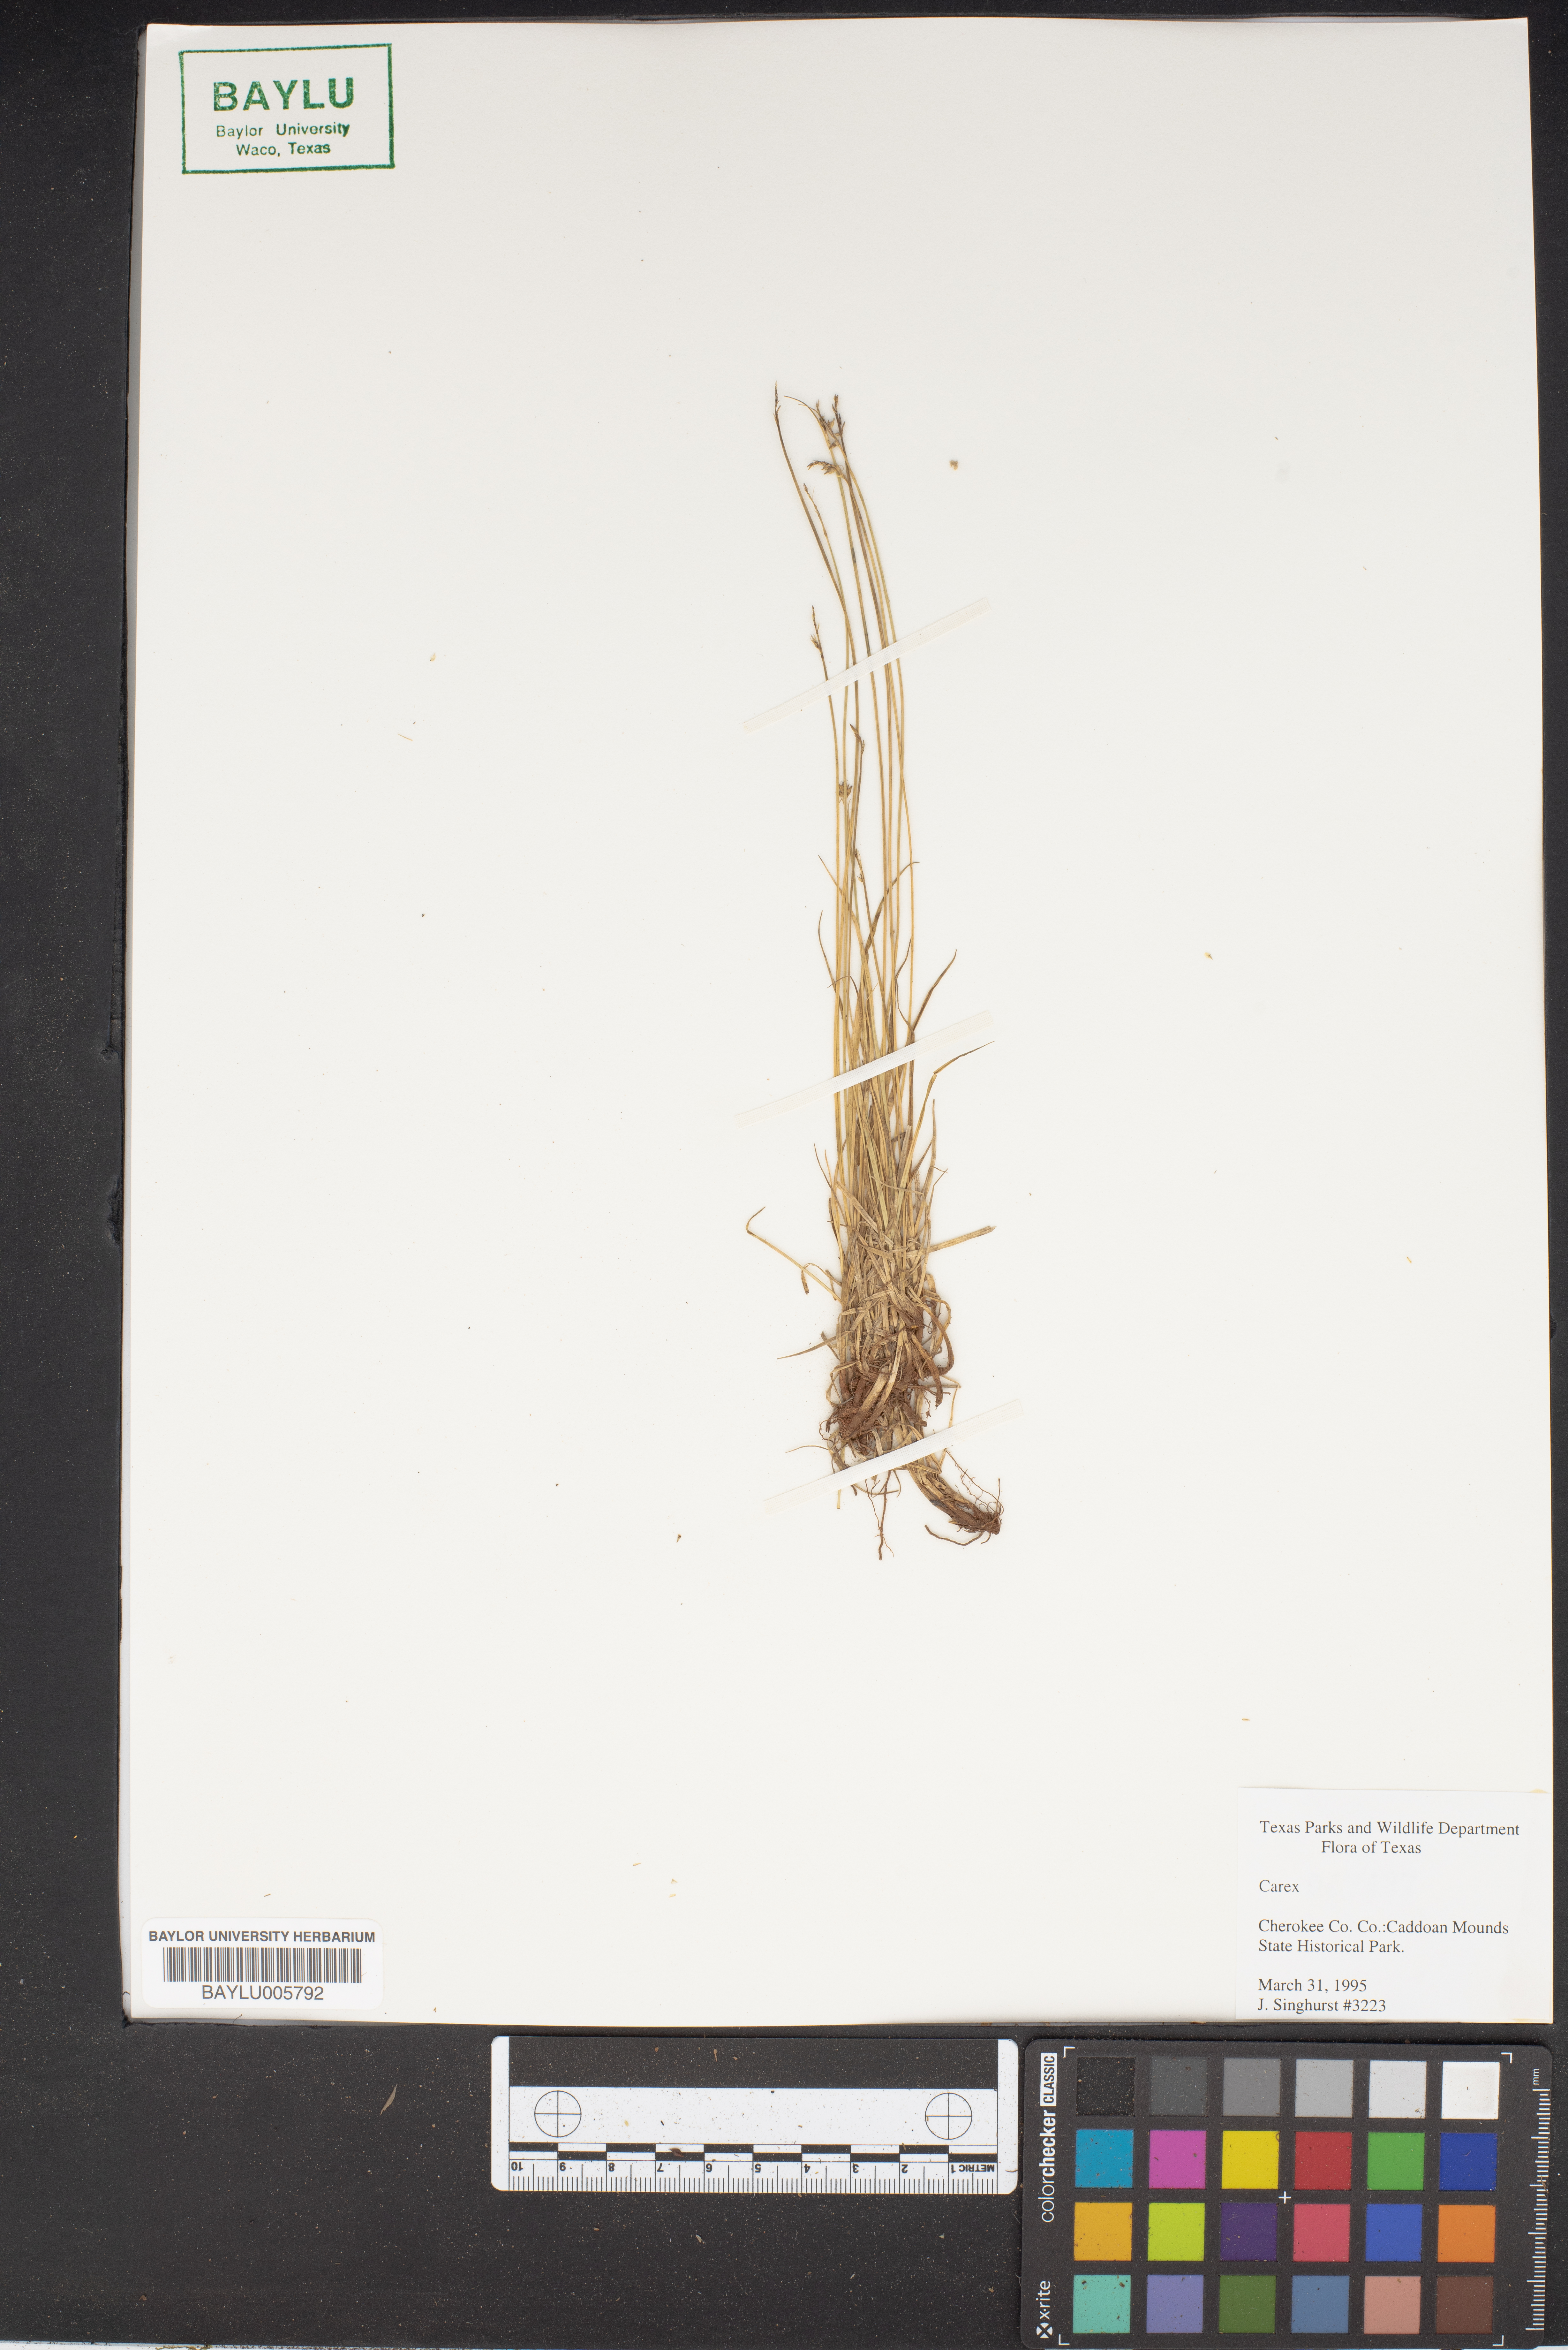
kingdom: Plantae
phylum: Tracheophyta
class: Liliopsida
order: Poales
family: Cyperaceae
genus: Carex
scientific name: Carex
